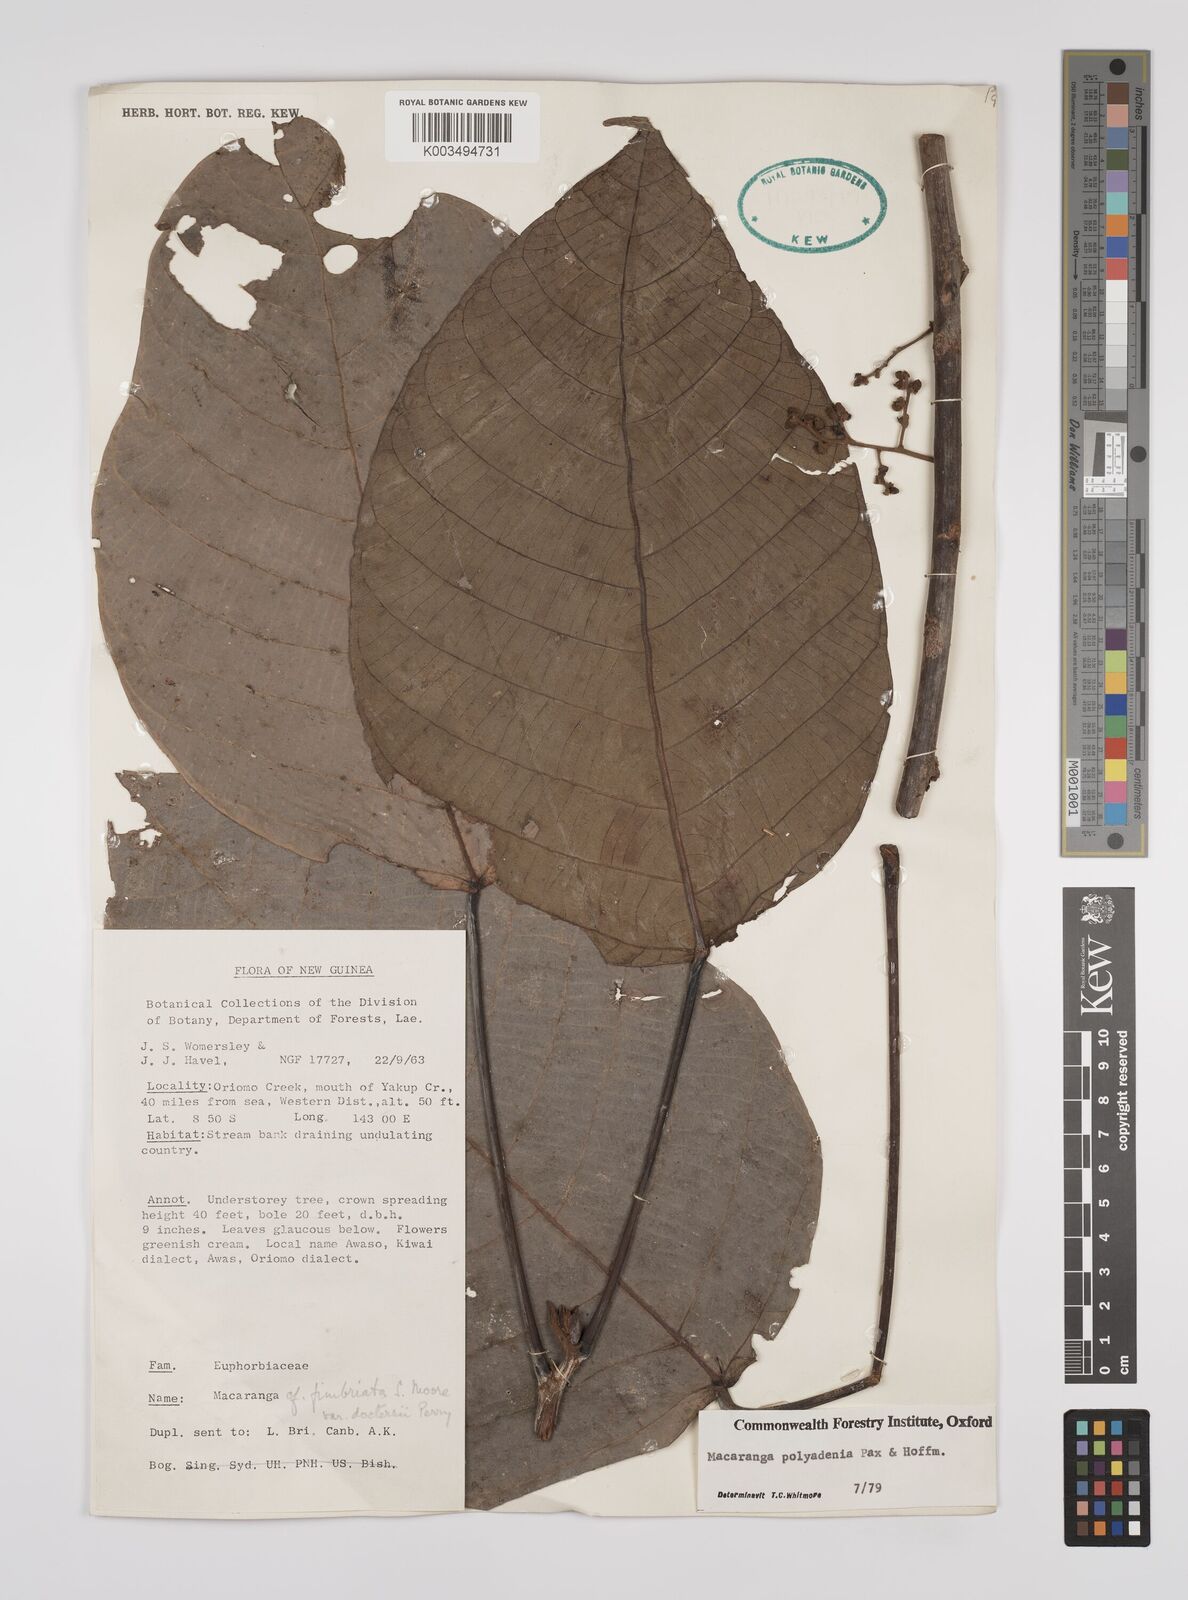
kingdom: Plantae
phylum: Tracheophyta
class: Magnoliopsida
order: Malpighiales
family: Euphorbiaceae
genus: Macaranga
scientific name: Macaranga polyadenia
